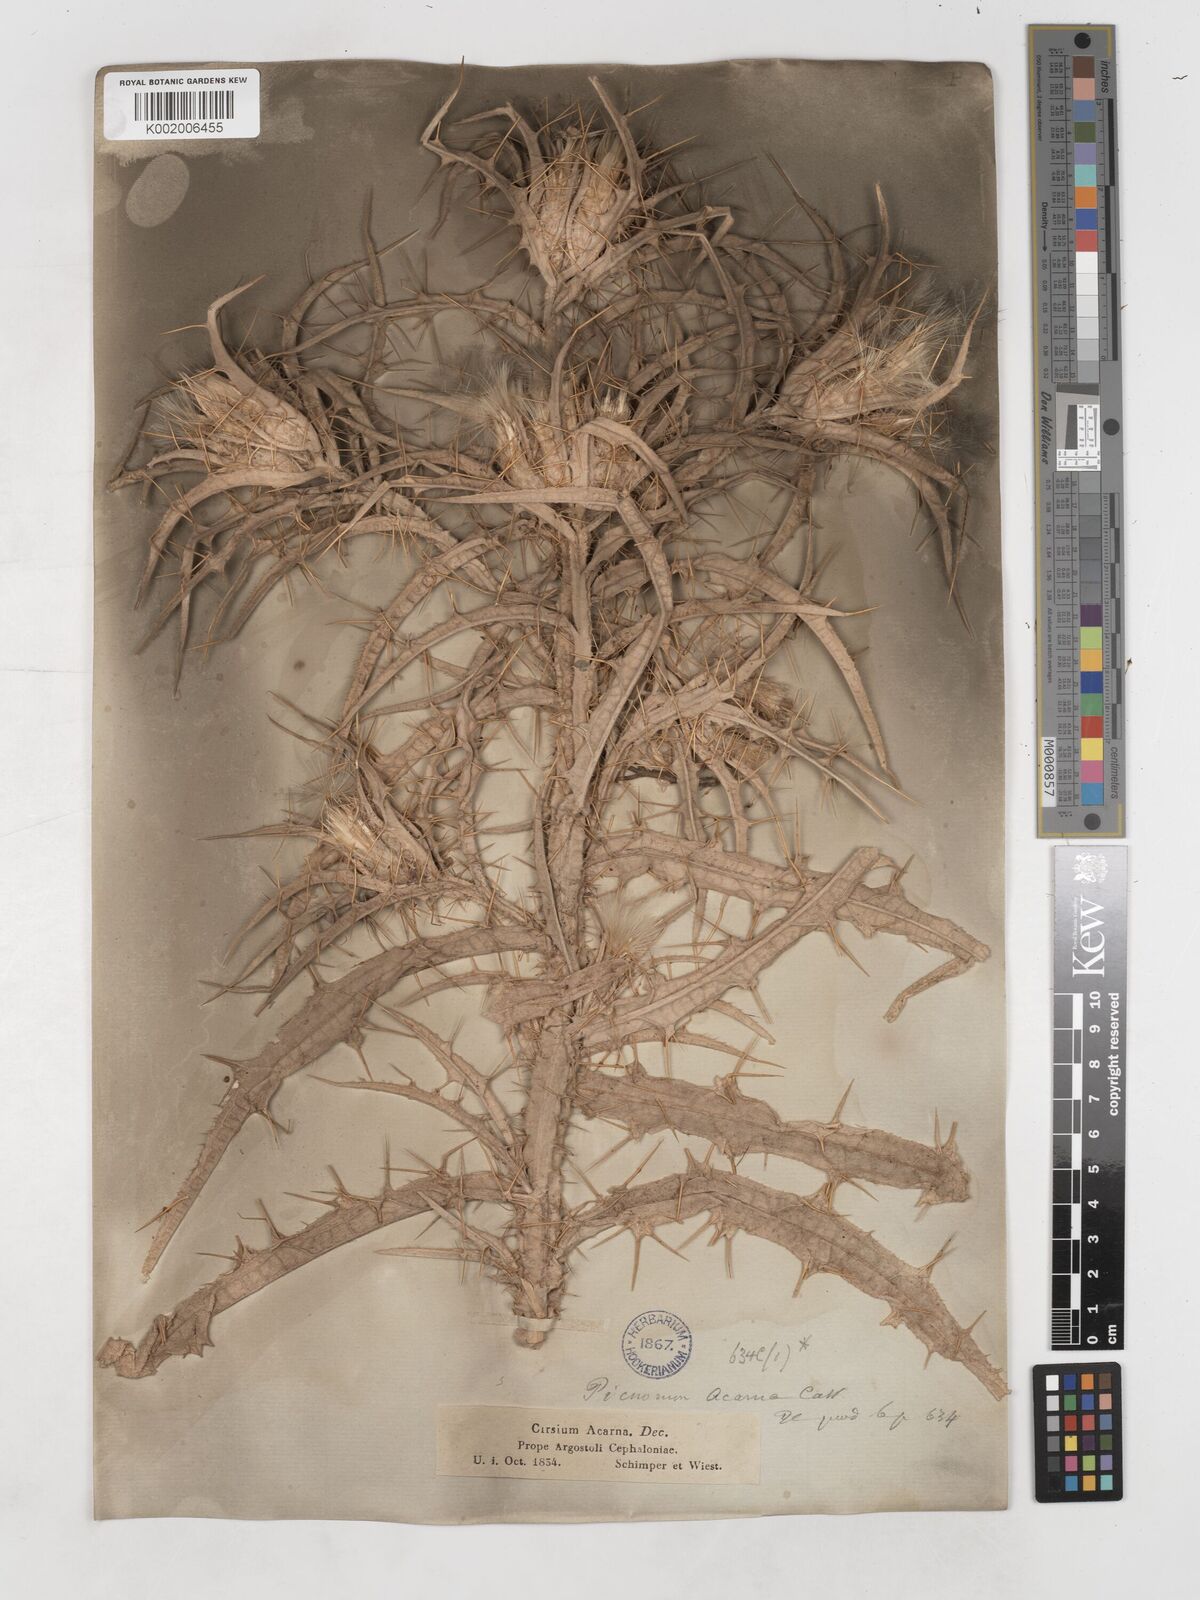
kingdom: Plantae
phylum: Tracheophyta
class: Magnoliopsida
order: Asterales
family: Asteraceae
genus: Picnomon
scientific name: Picnomon acarna
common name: Soldier thistle
